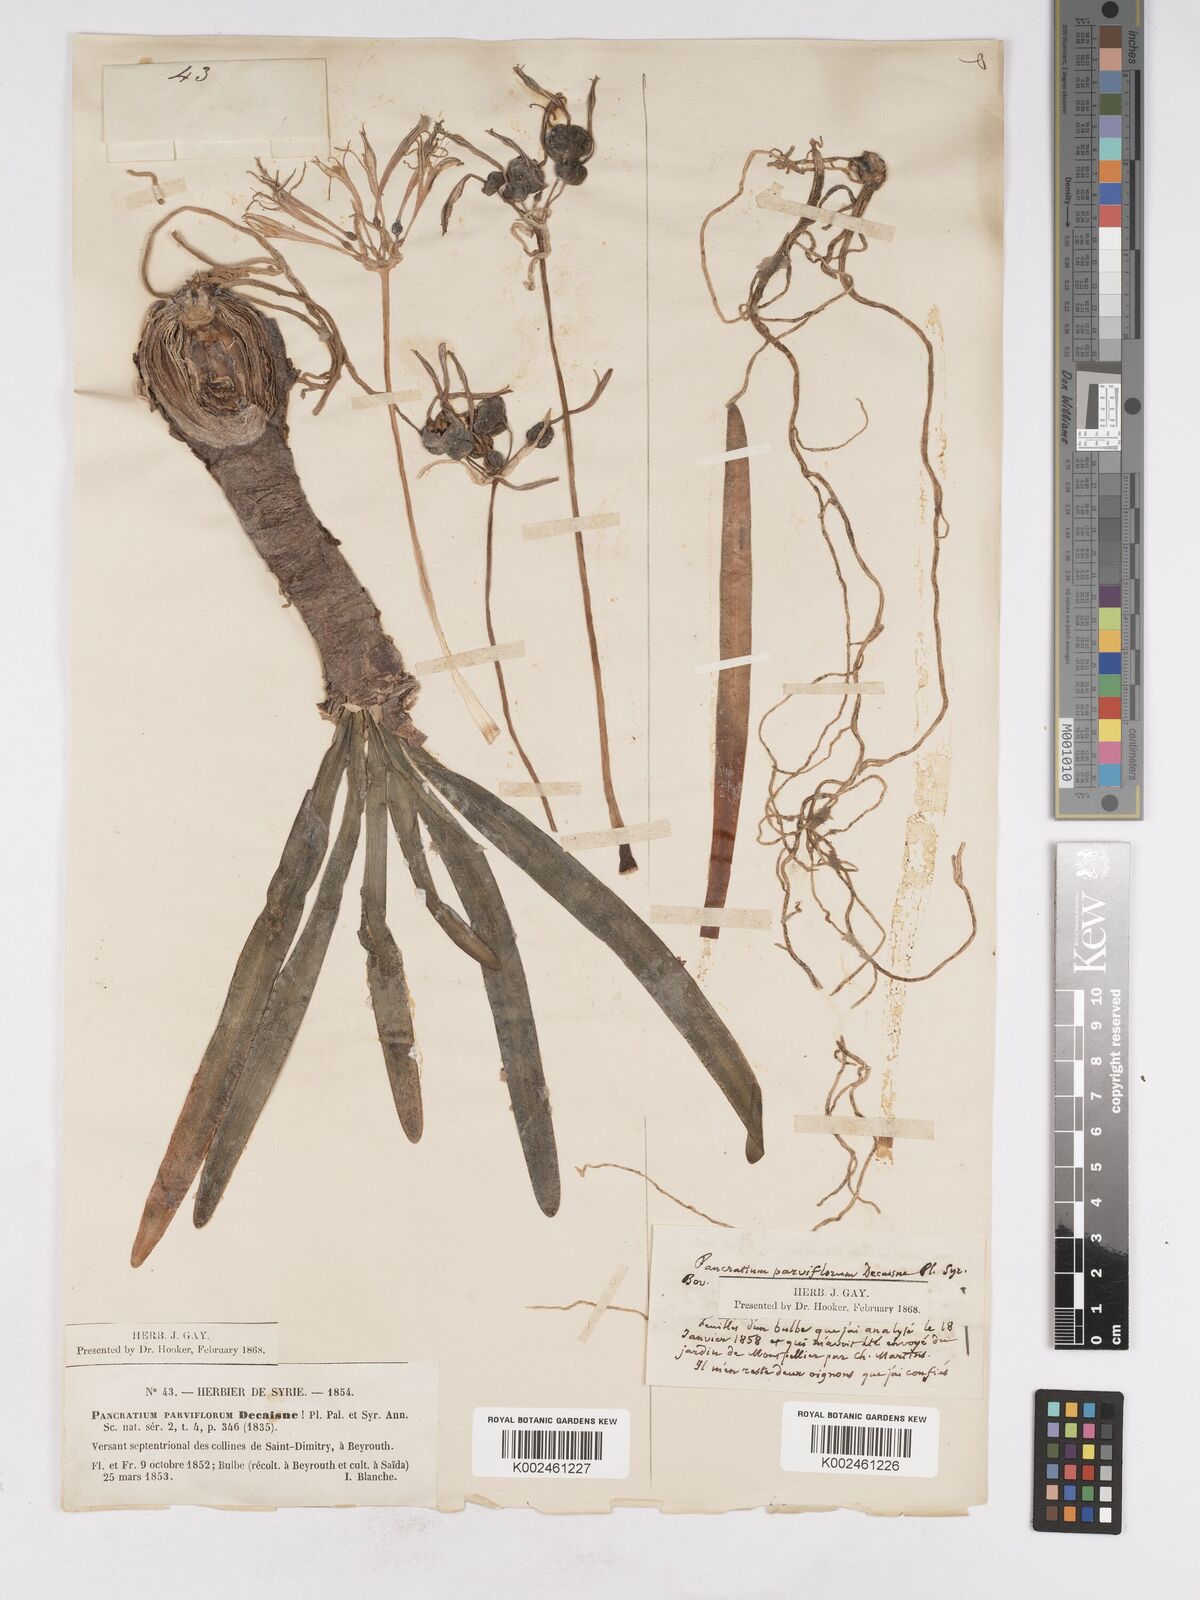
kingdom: Plantae
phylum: Tracheophyta
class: Liliopsida
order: Asparagales
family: Amaryllidaceae
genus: Vagaria
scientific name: Vagaria parviflora
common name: Small-flowered pancratium
